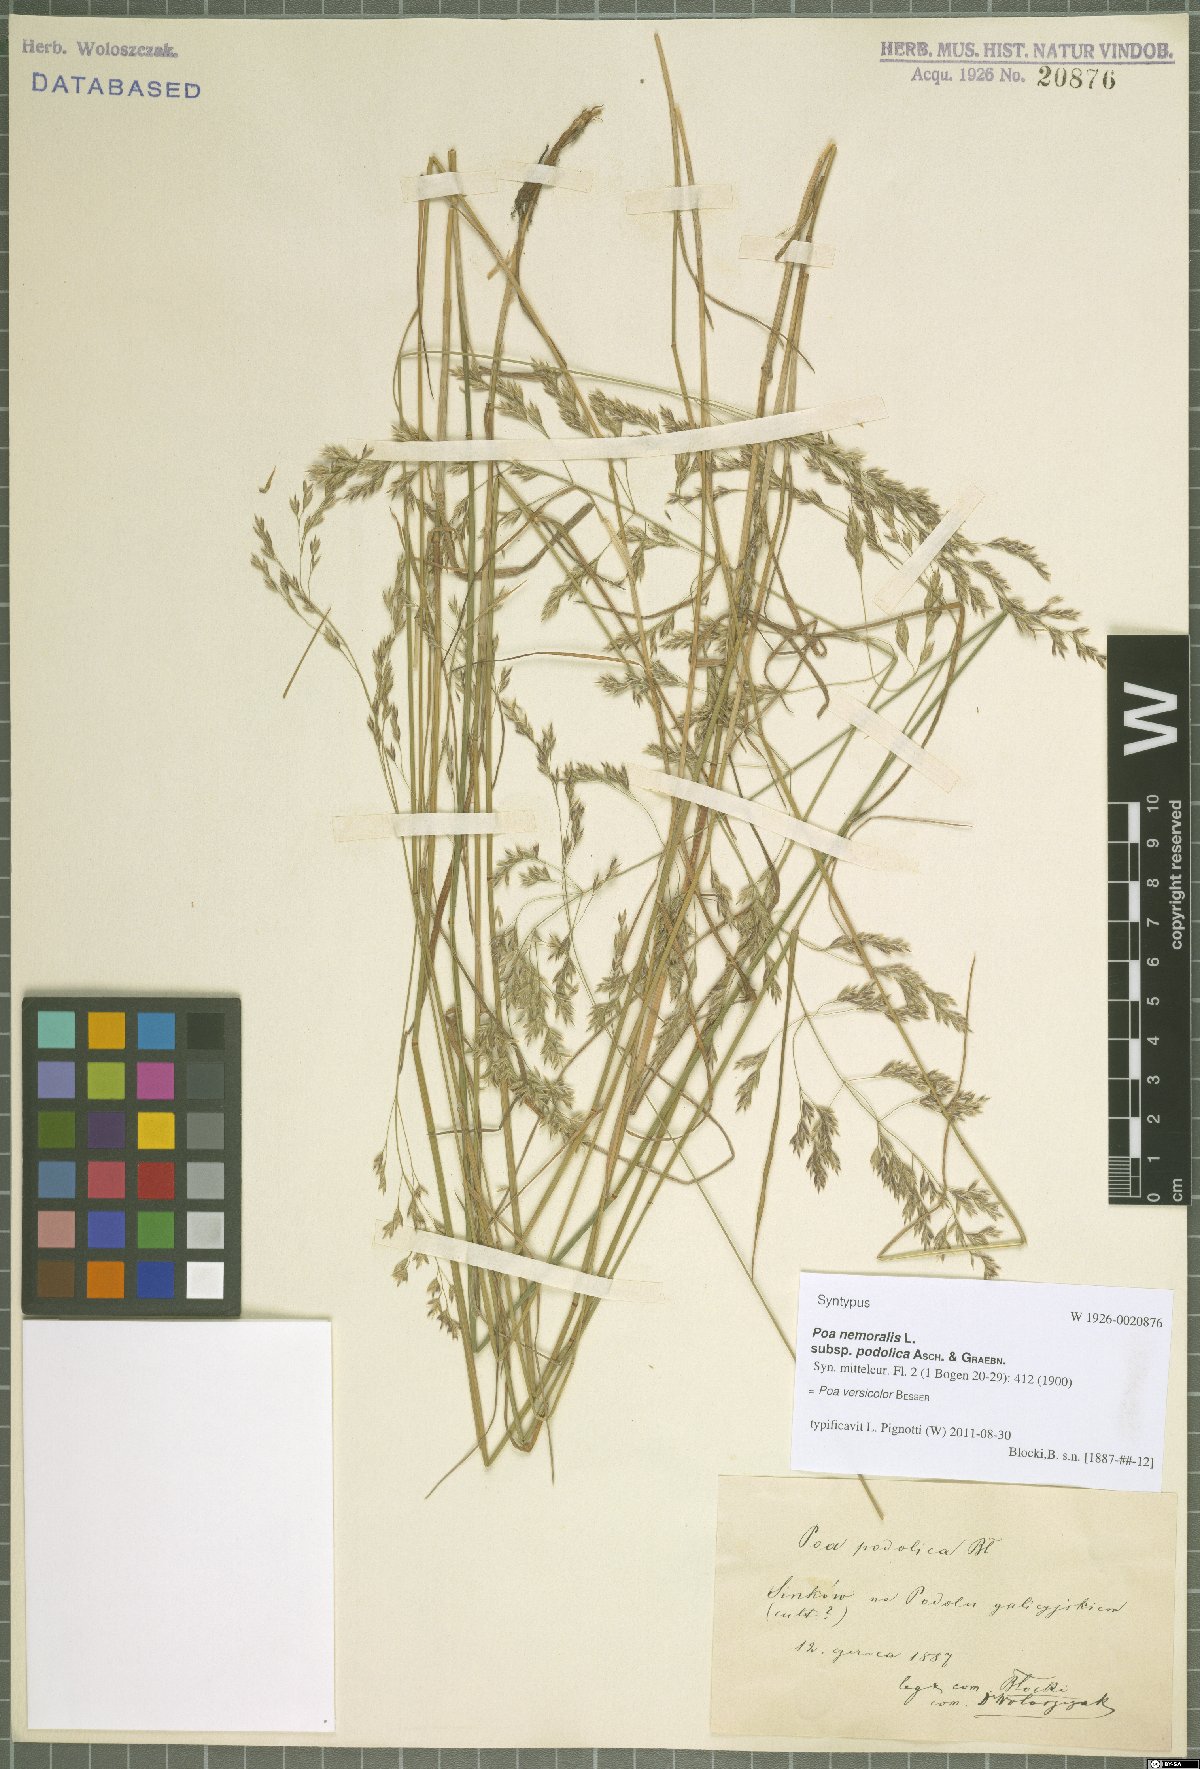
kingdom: Plantae
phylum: Tracheophyta
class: Liliopsida
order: Poales
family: Poaceae
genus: Poa
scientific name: Poa versicolor
